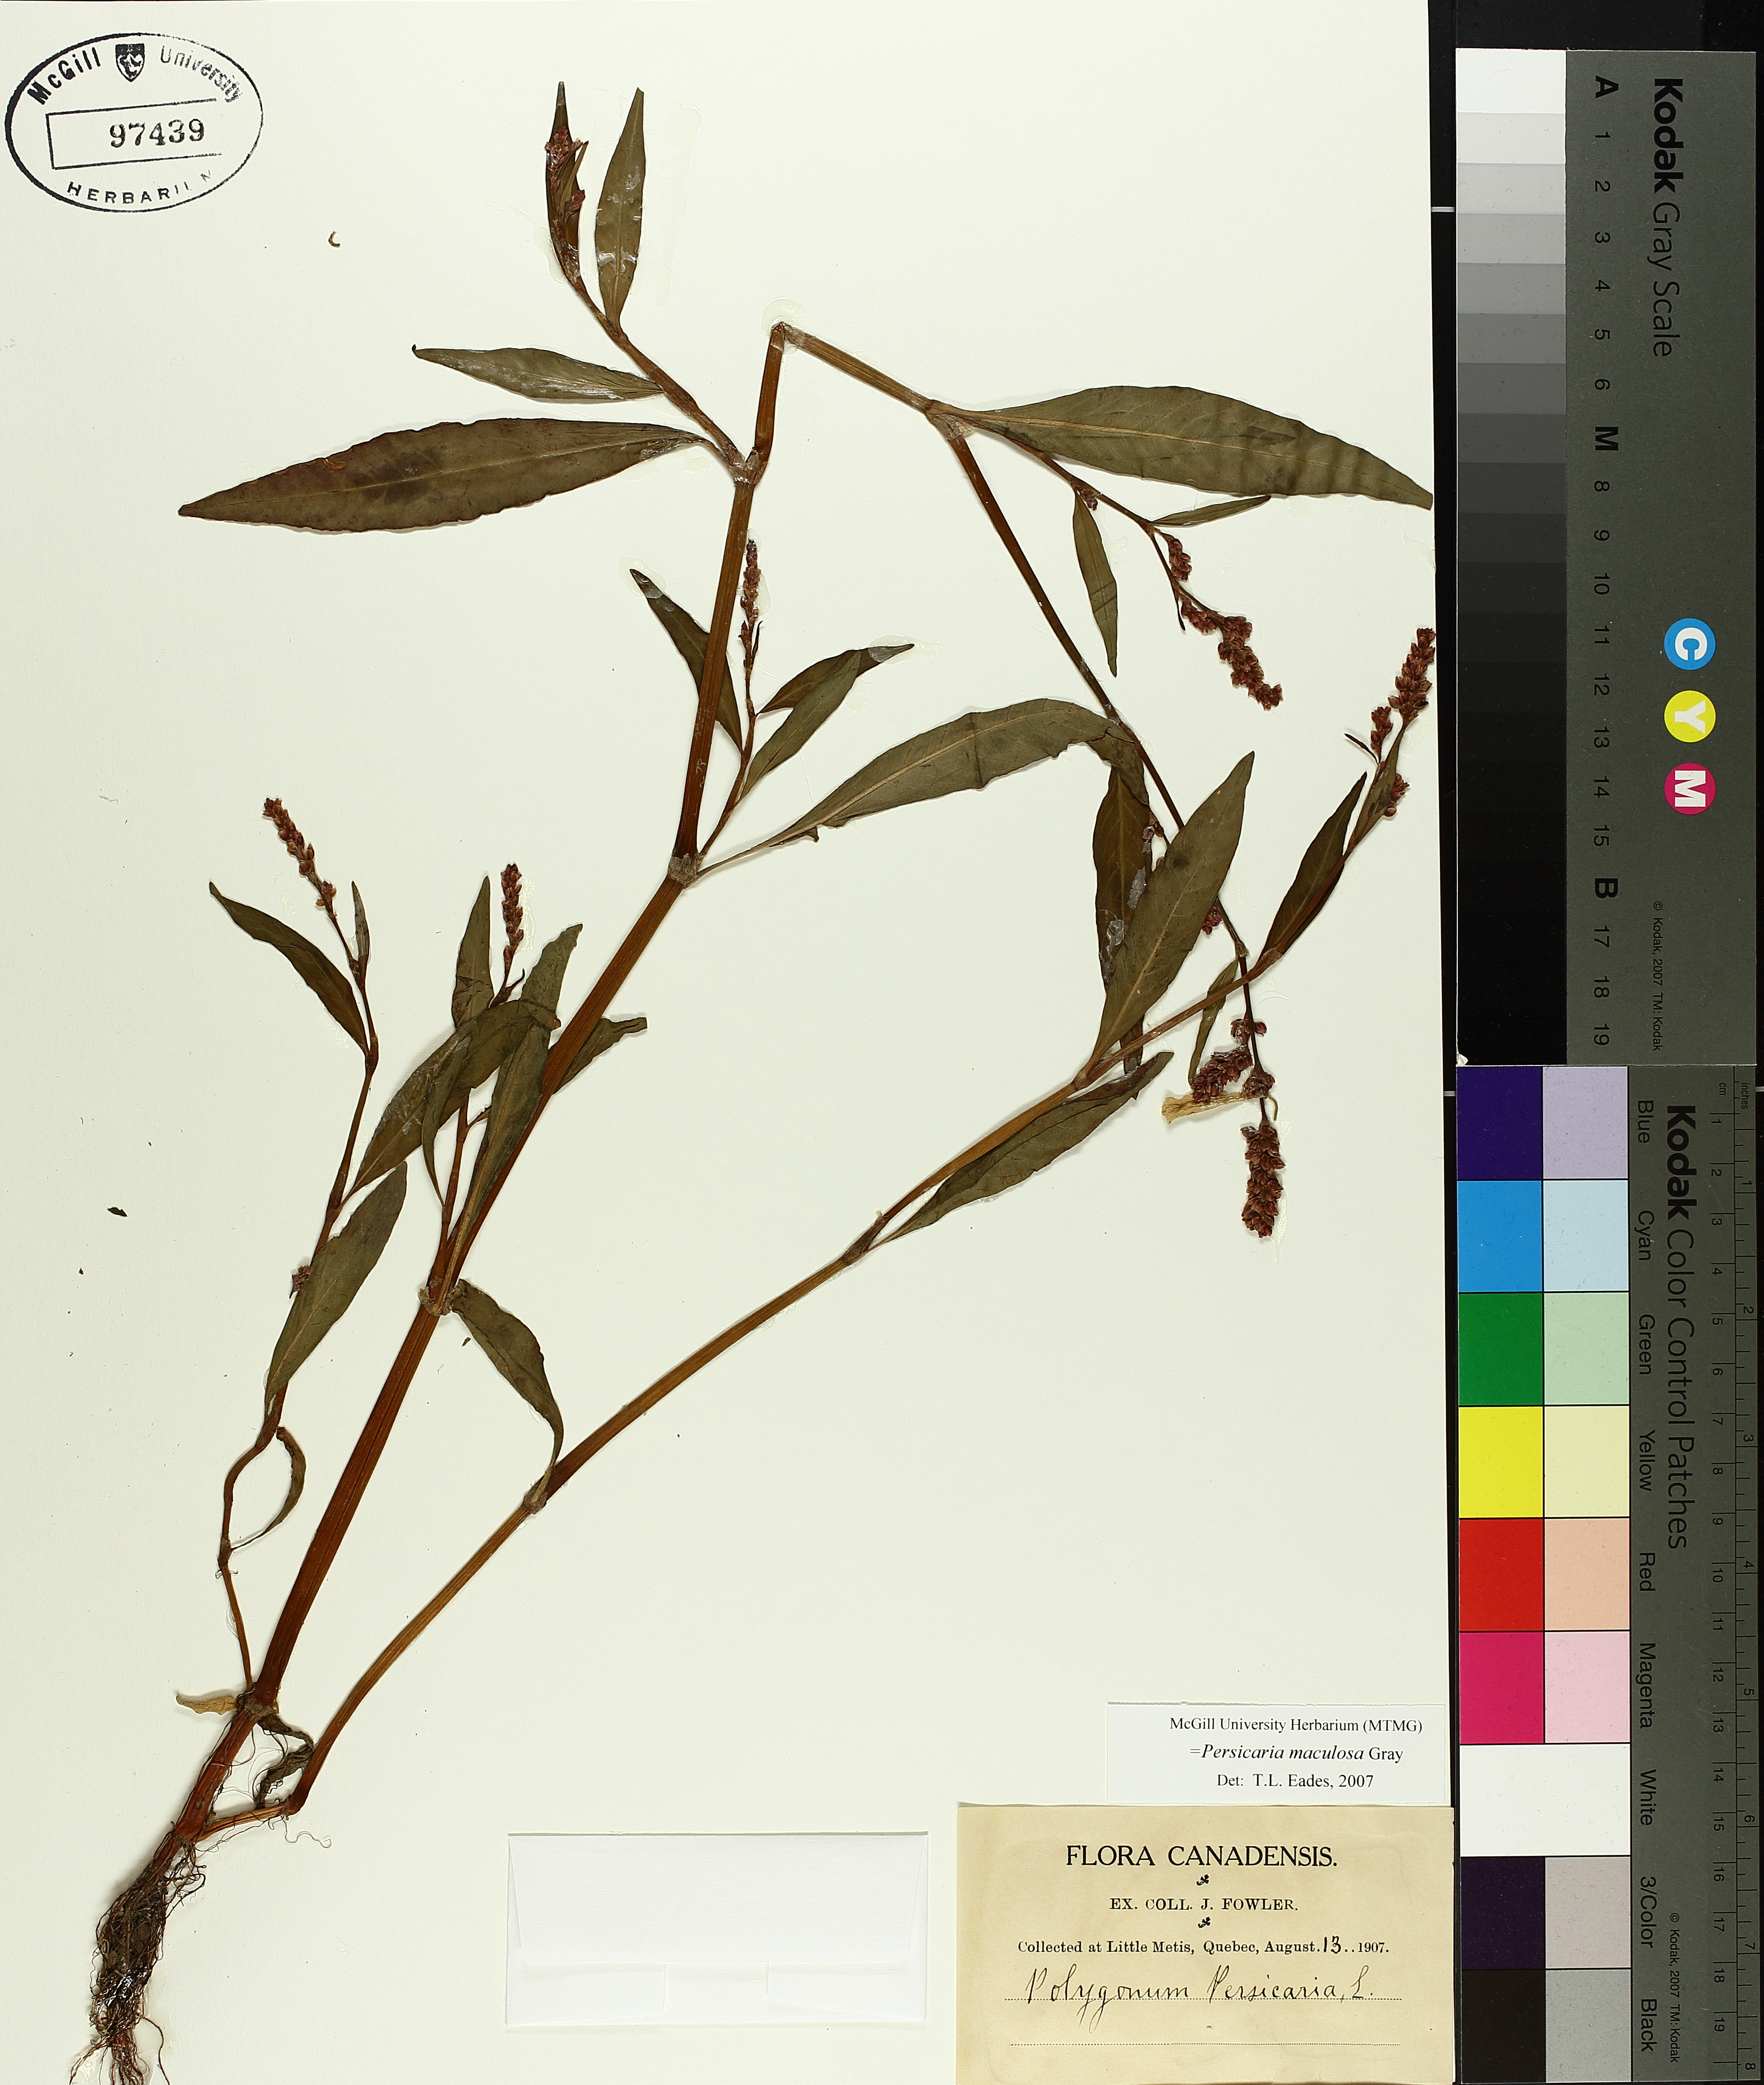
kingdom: Plantae
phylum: Tracheophyta
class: Magnoliopsida
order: Caryophyllales
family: Polygonaceae
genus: Persicaria
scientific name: Persicaria maculosa
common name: Redshank
